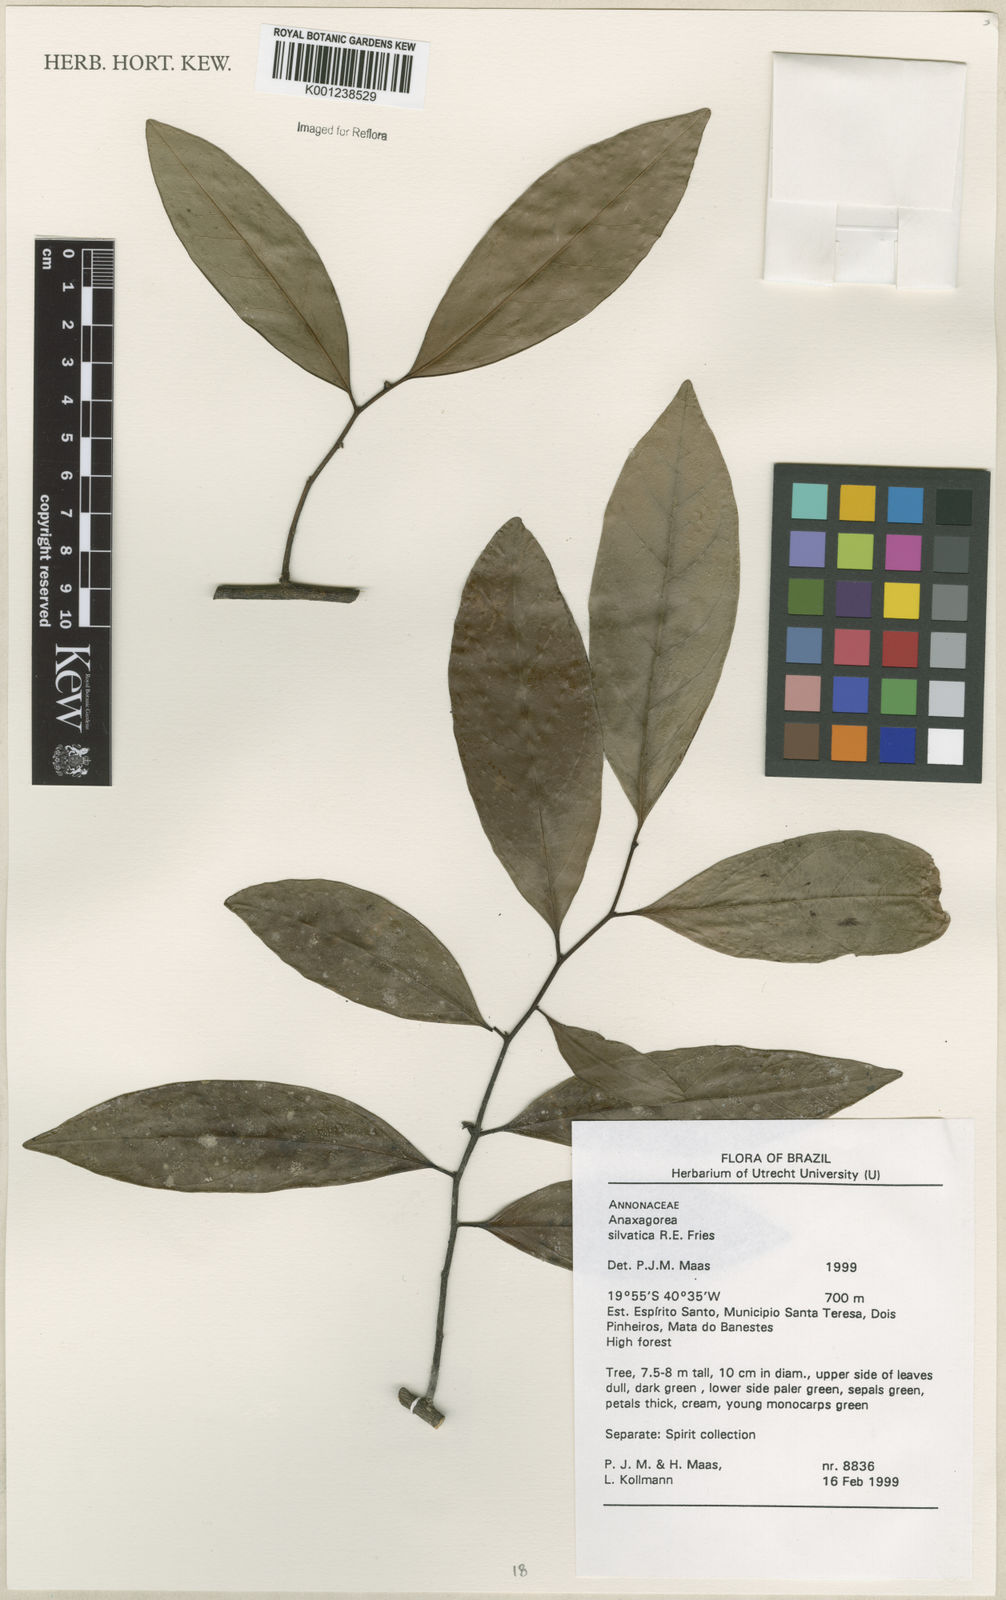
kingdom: Plantae
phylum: Tracheophyta
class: Magnoliopsida
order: Magnoliales
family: Annonaceae
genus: Anaxagorea
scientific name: Anaxagorea silvatica
